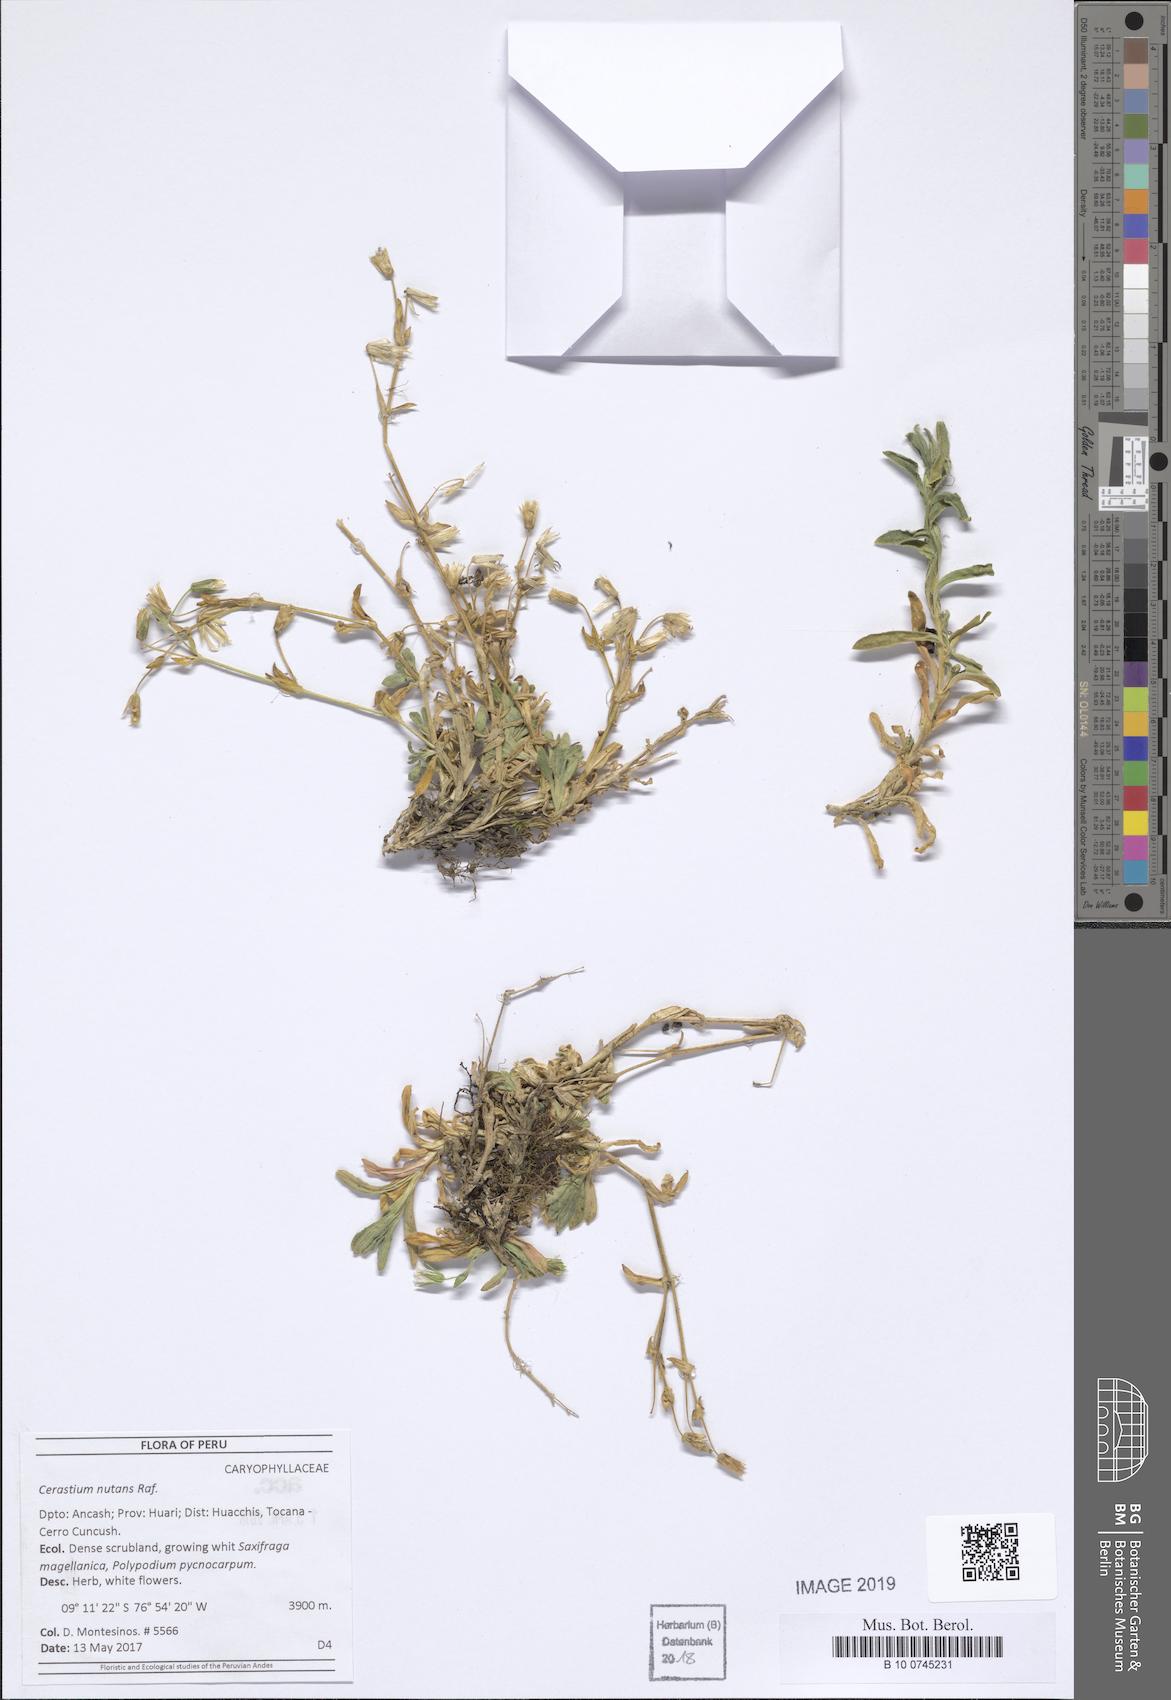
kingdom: Plantae
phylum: Tracheophyta
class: Magnoliopsida
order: Caryophyllales
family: Caryophyllaceae
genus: Cerastium
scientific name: Cerastium nutans
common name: Long-stalked chickweed
